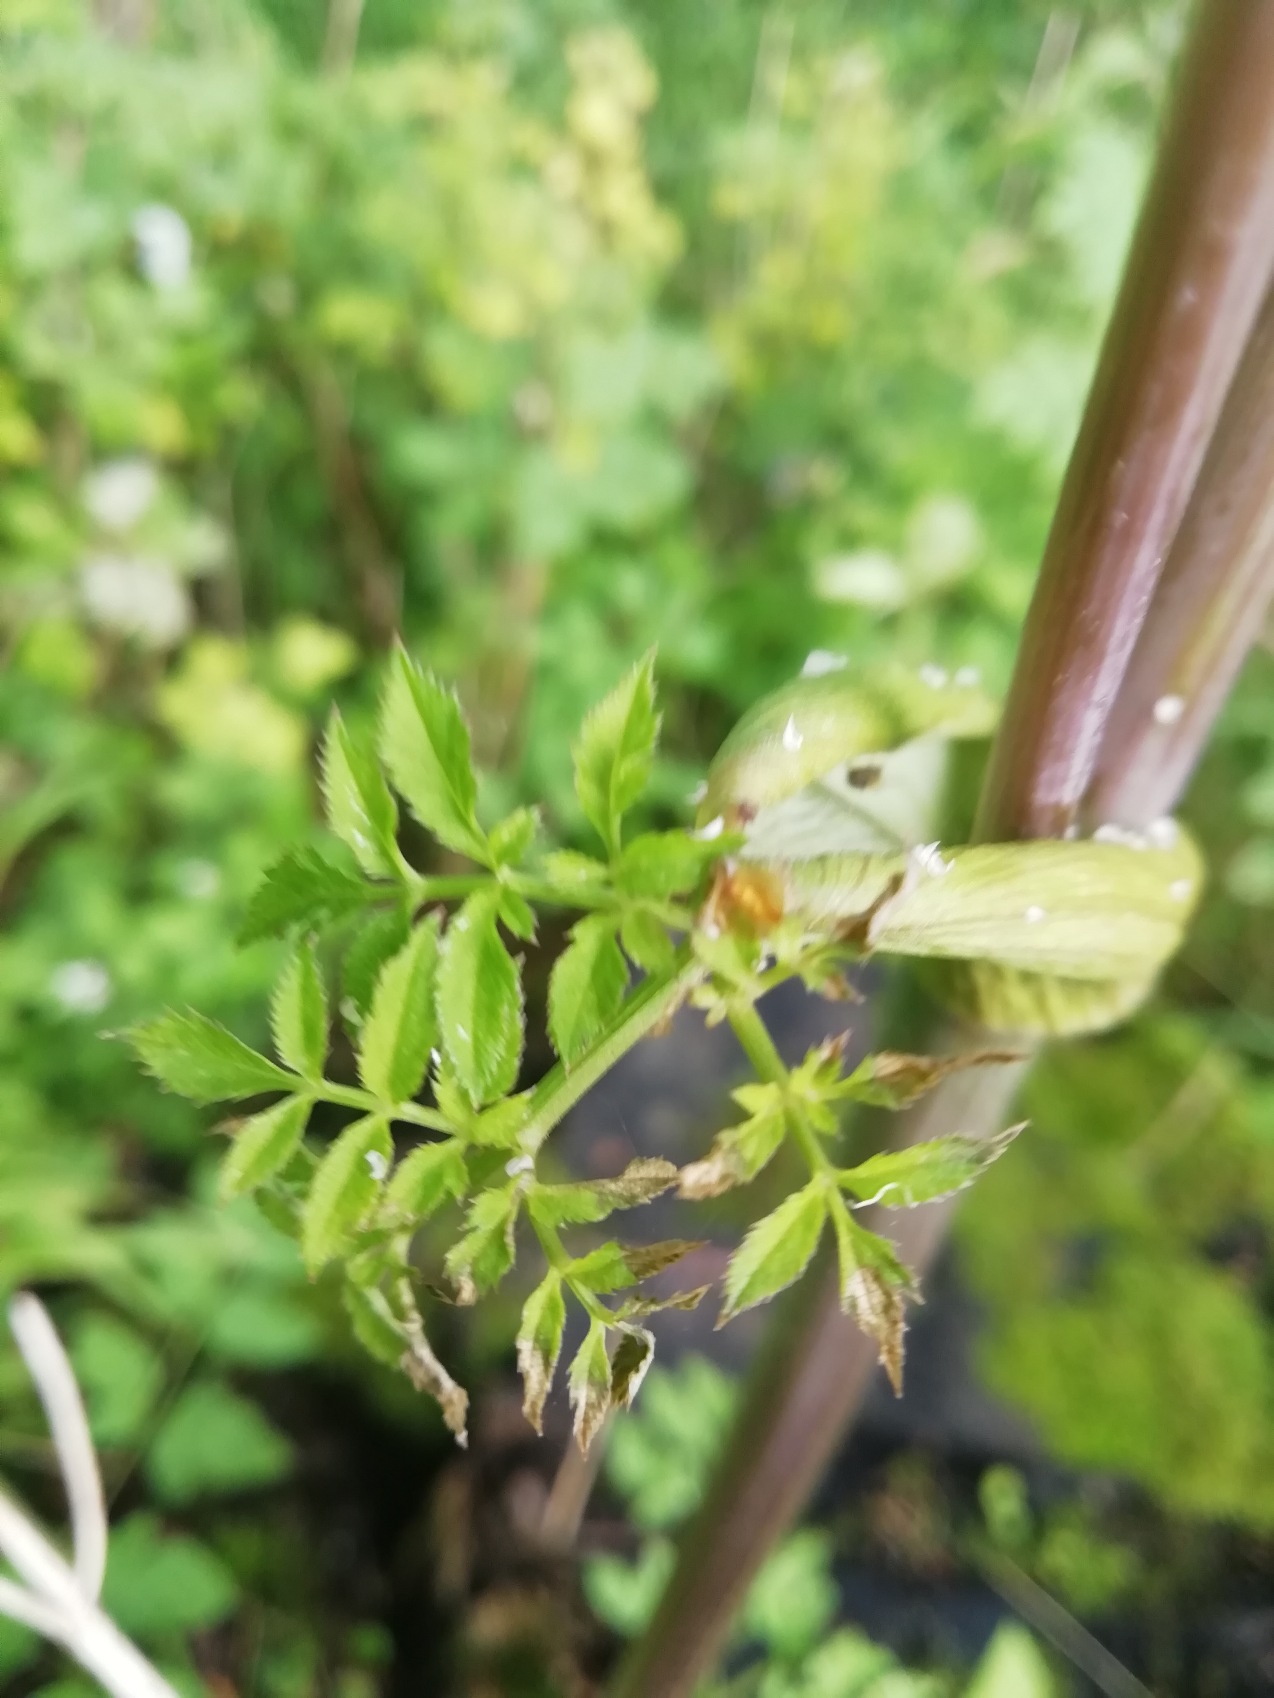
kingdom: Plantae
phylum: Tracheophyta
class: Magnoliopsida
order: Apiales
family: Apiaceae
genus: Angelica
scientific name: Angelica sylvestris
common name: Angelik
